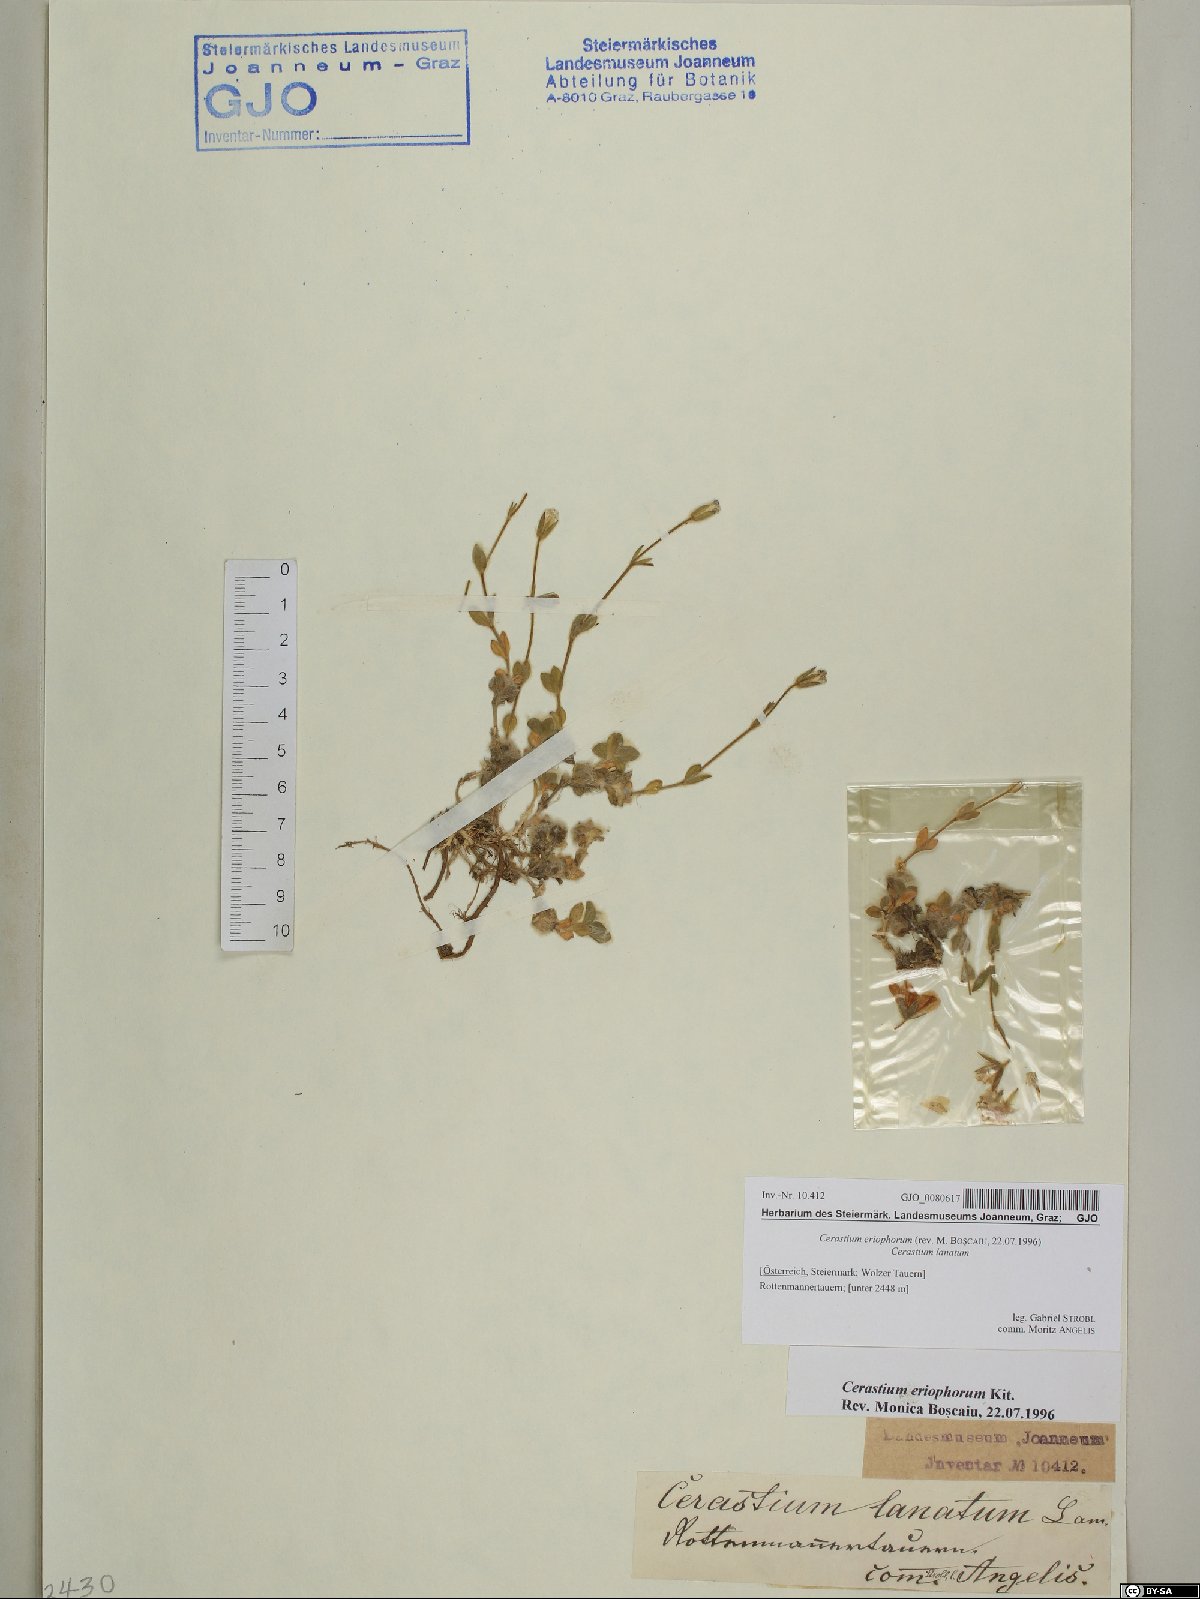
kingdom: Plantae
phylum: Tracheophyta
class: Magnoliopsida
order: Caryophyllales
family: Caryophyllaceae
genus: Cerastium
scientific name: Cerastium eriophorum
